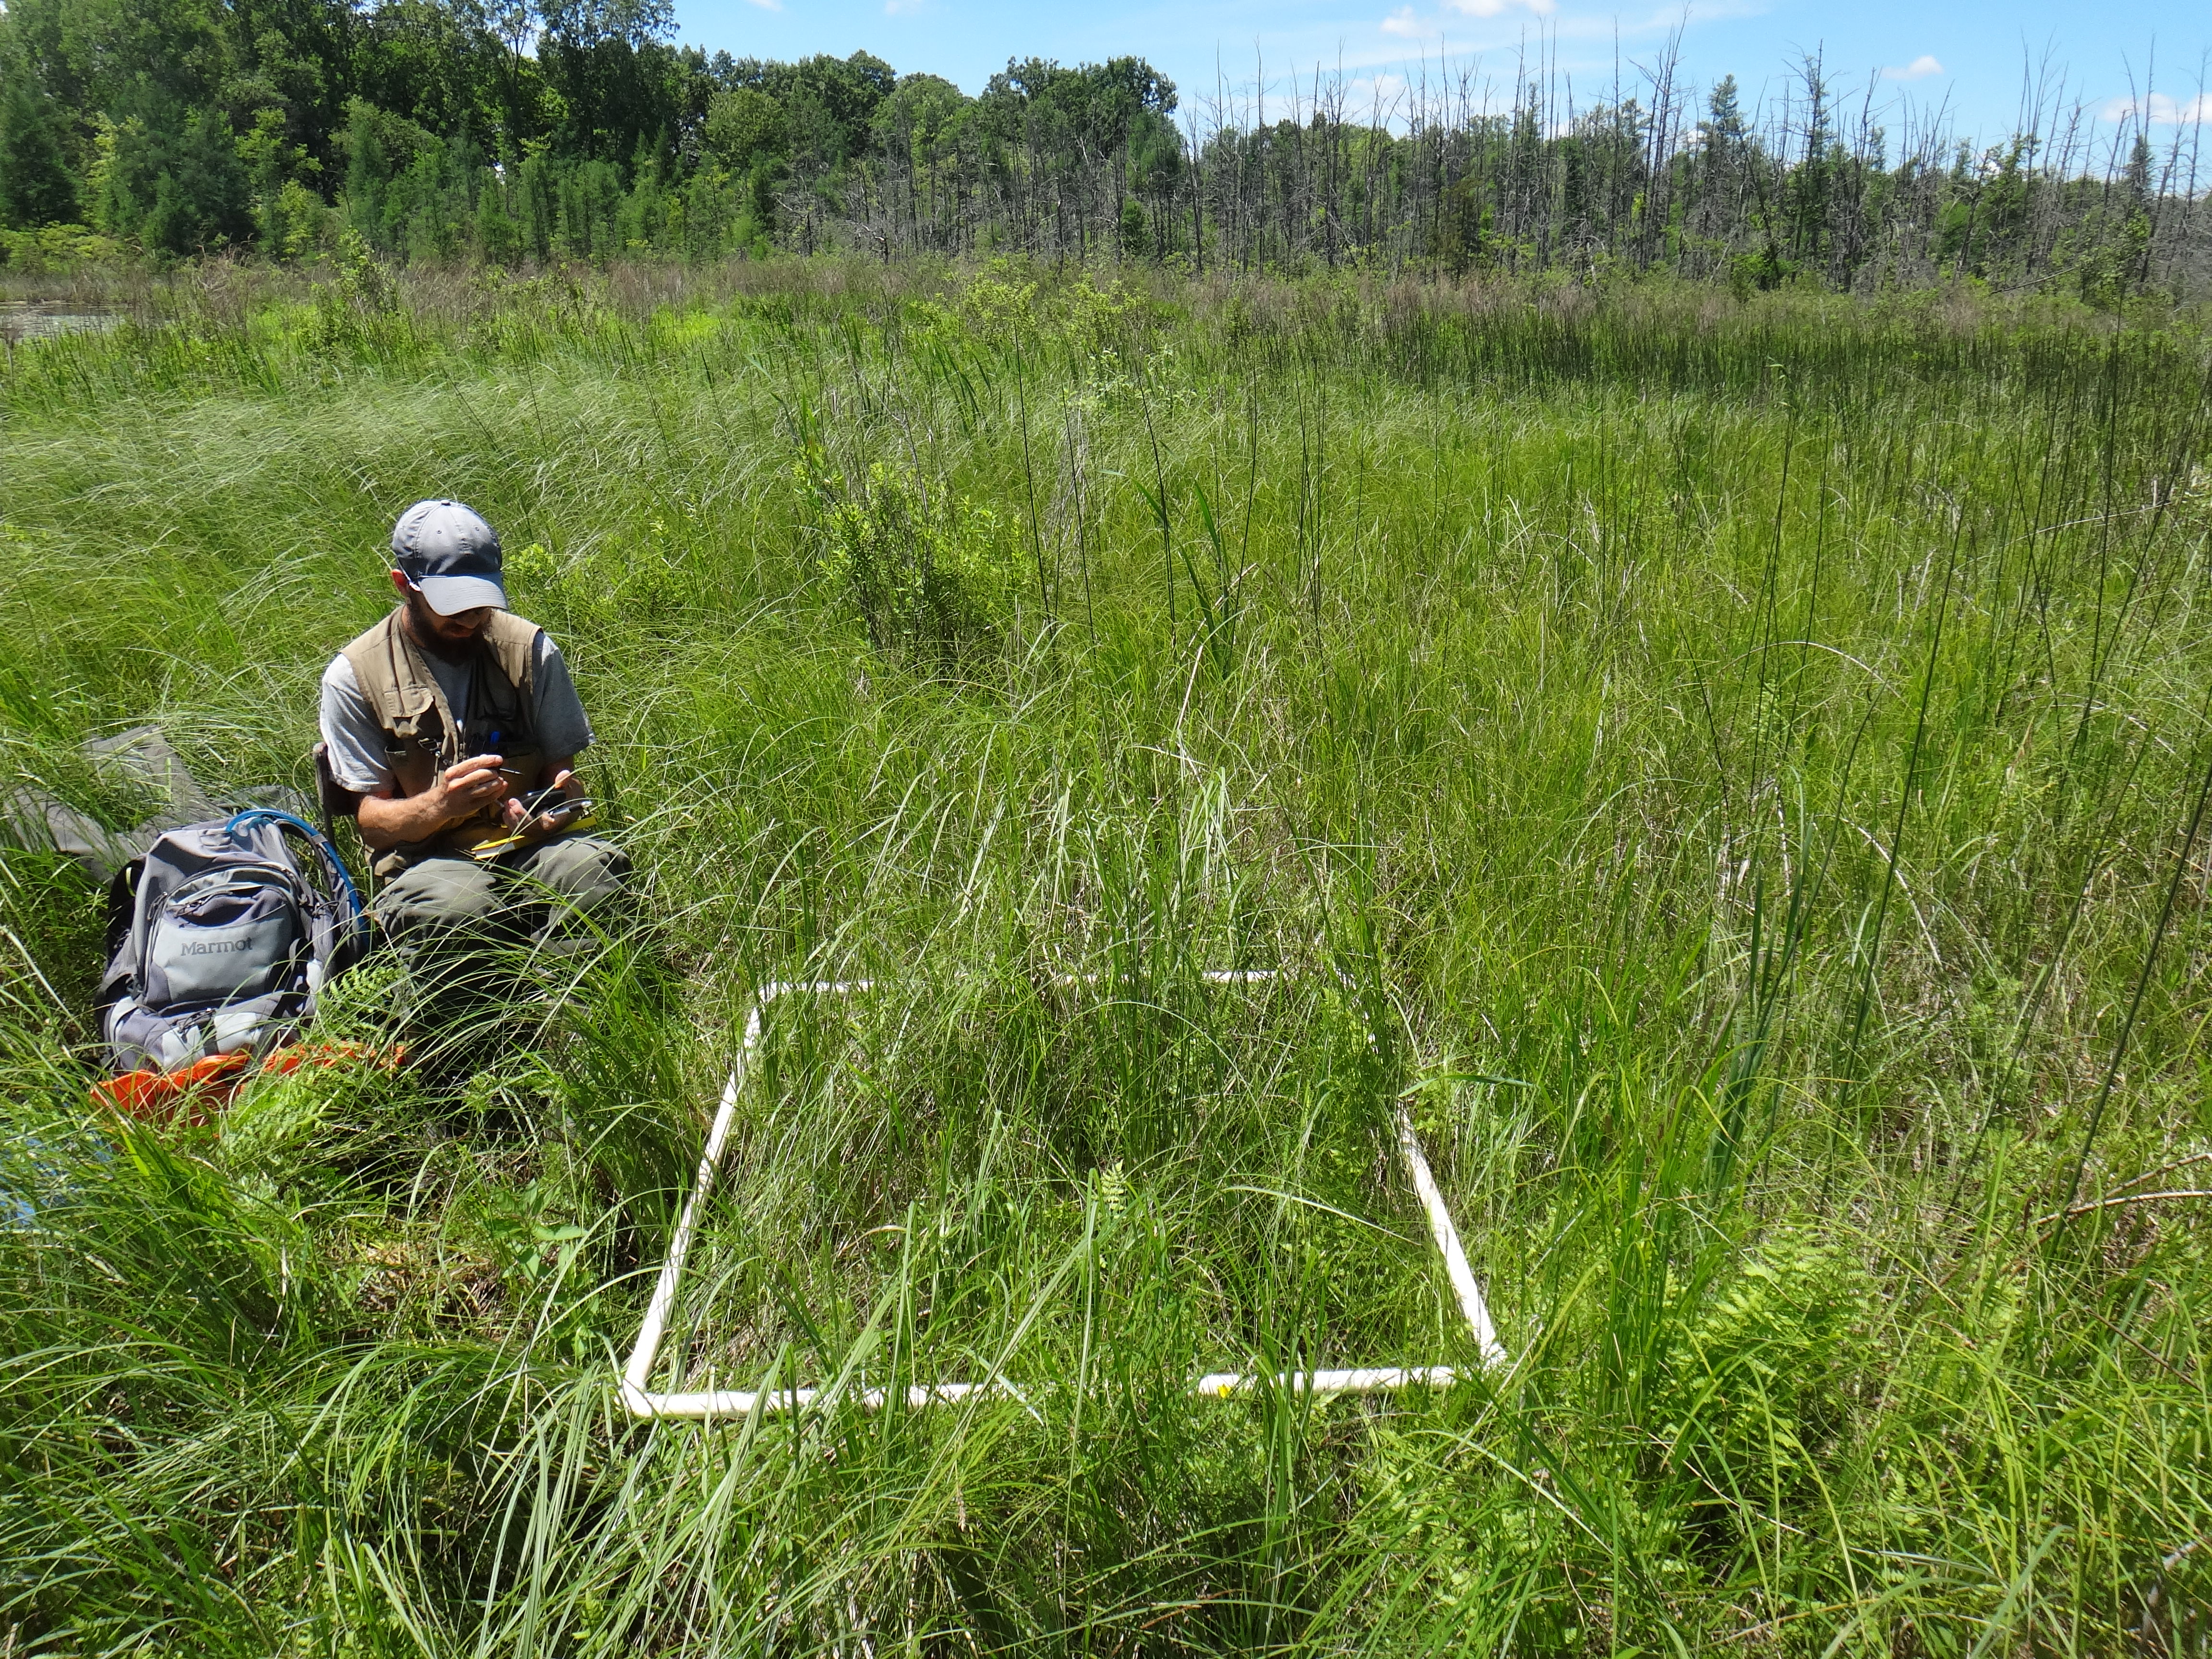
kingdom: Plantae
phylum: Tracheophyta
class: Liliopsida
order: Poales
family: Poaceae
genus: Poa
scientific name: Poa pratensis
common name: Kentucky bluegrass
